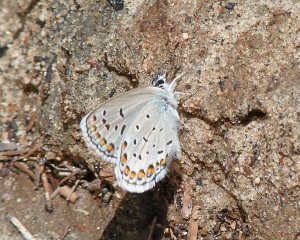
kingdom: Animalia
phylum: Arthropoda
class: Insecta
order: Lepidoptera
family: Lycaenidae
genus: Lycaeides
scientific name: Lycaeides melissa
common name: Melissa Blue
